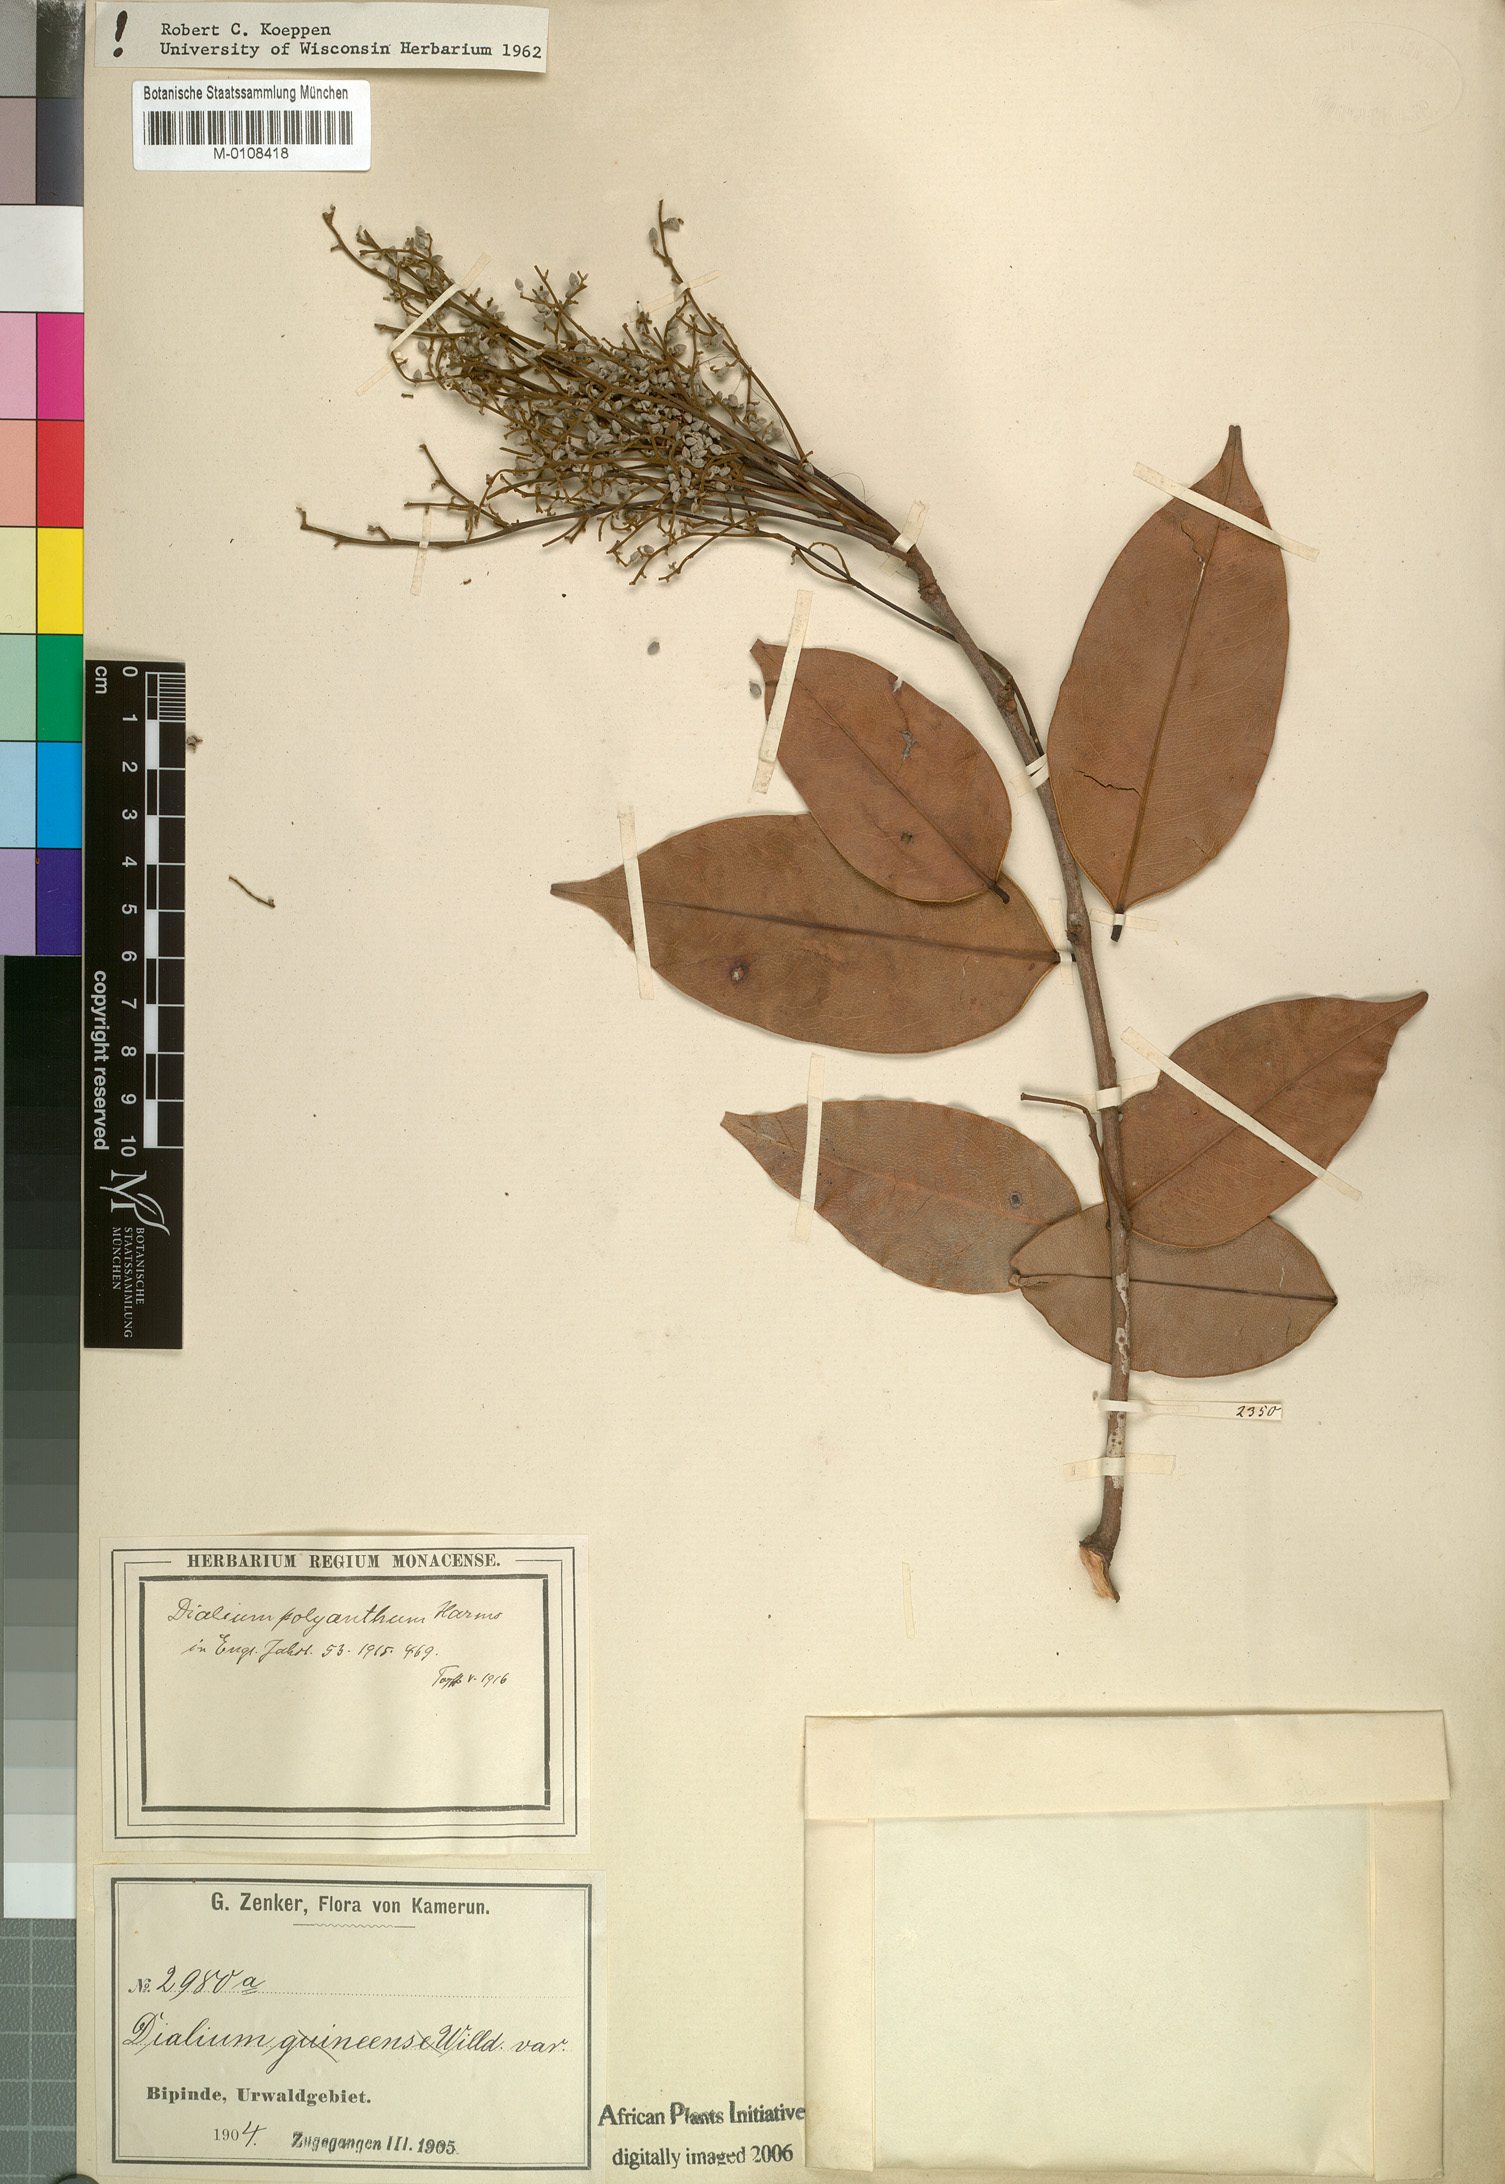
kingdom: Plantae
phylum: Tracheophyta
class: Magnoliopsida
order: Fabales
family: Fabaceae
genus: Dialium
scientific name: Dialium polyanthum
